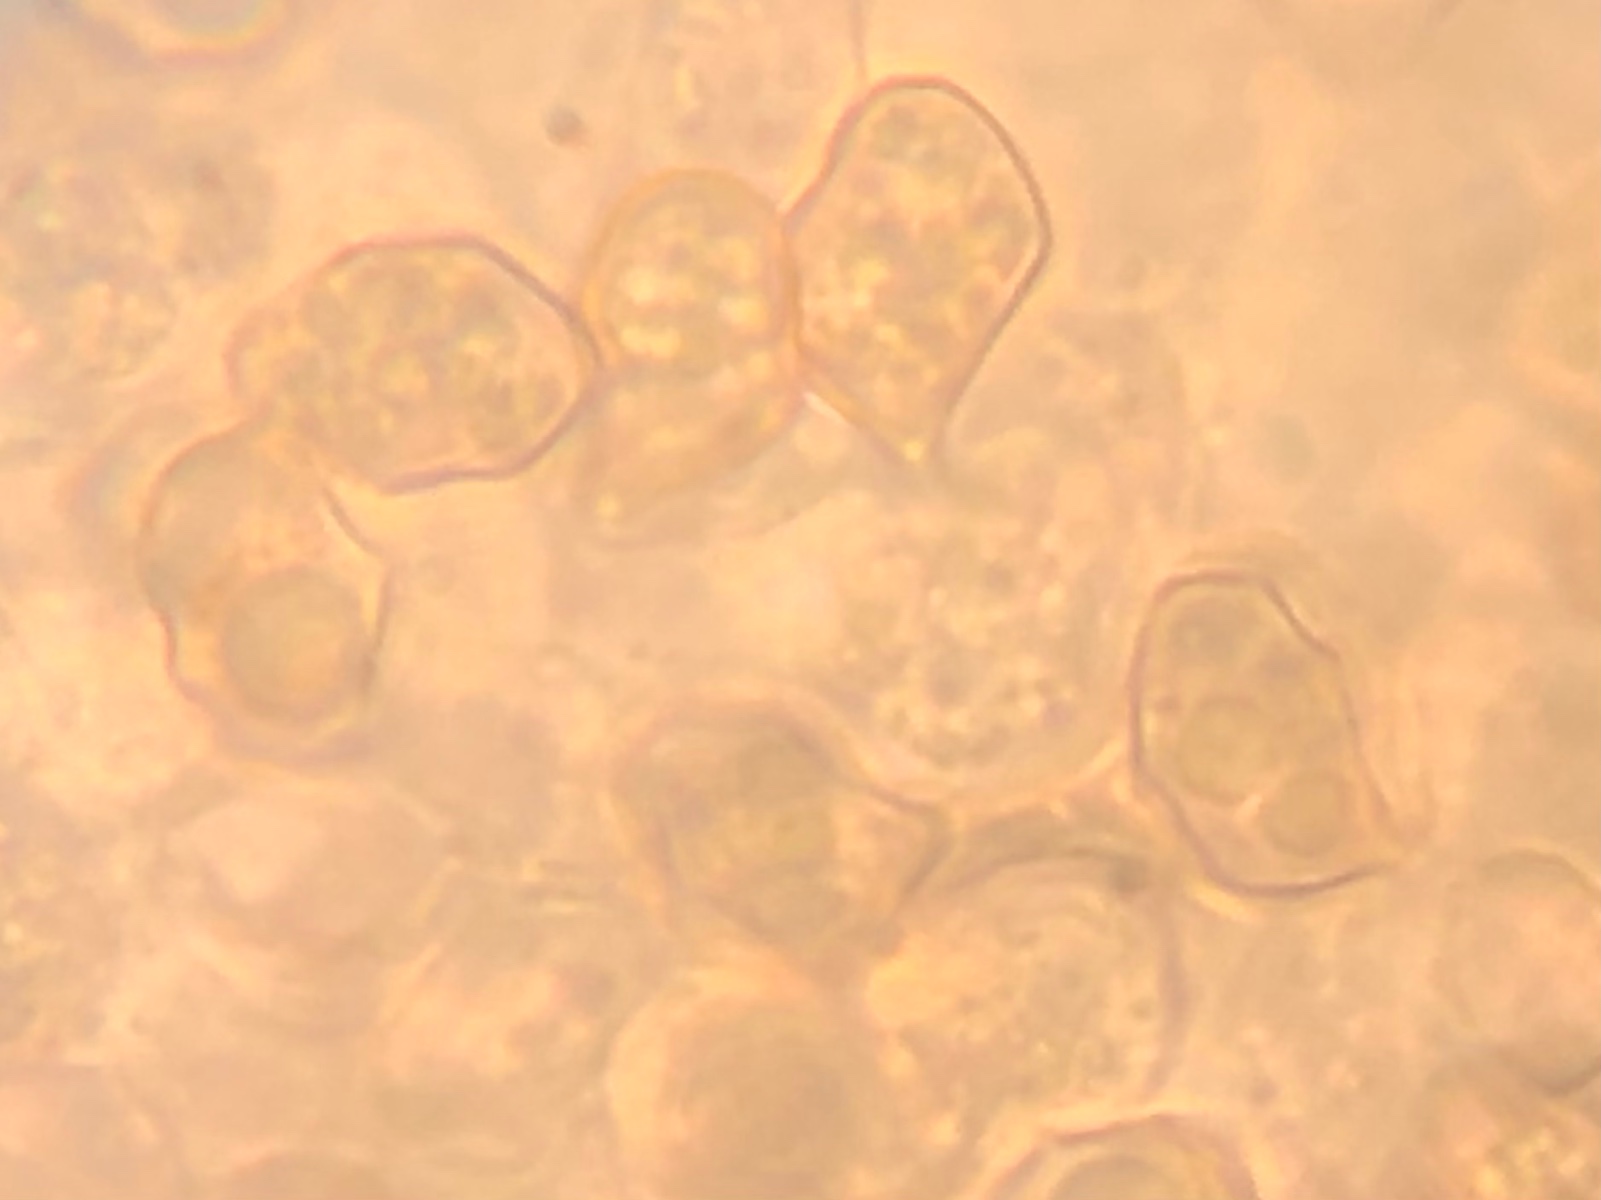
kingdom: Fungi
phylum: Basidiomycota
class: Agaricomycetes
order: Agaricales
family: Entolomataceae
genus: Entoloma
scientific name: Entoloma
